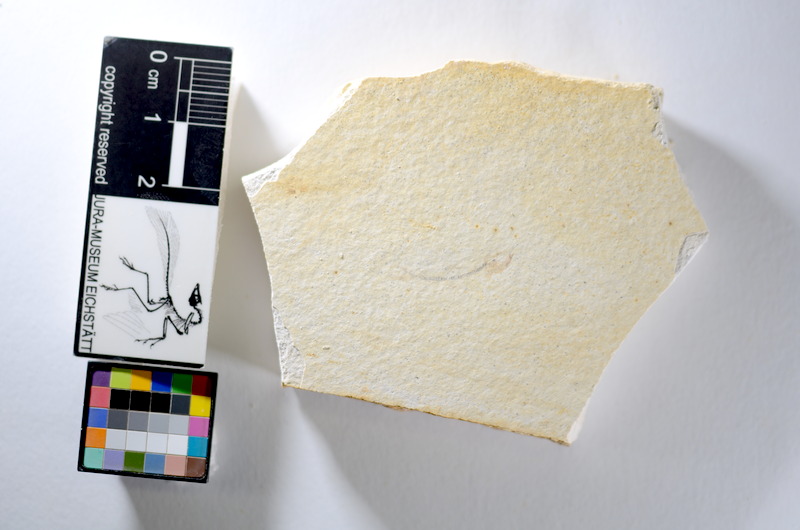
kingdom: Animalia
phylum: Chordata
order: Salmoniformes
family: Orthogonikleithridae
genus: Orthogonikleithrus
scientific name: Orthogonikleithrus hoelli
